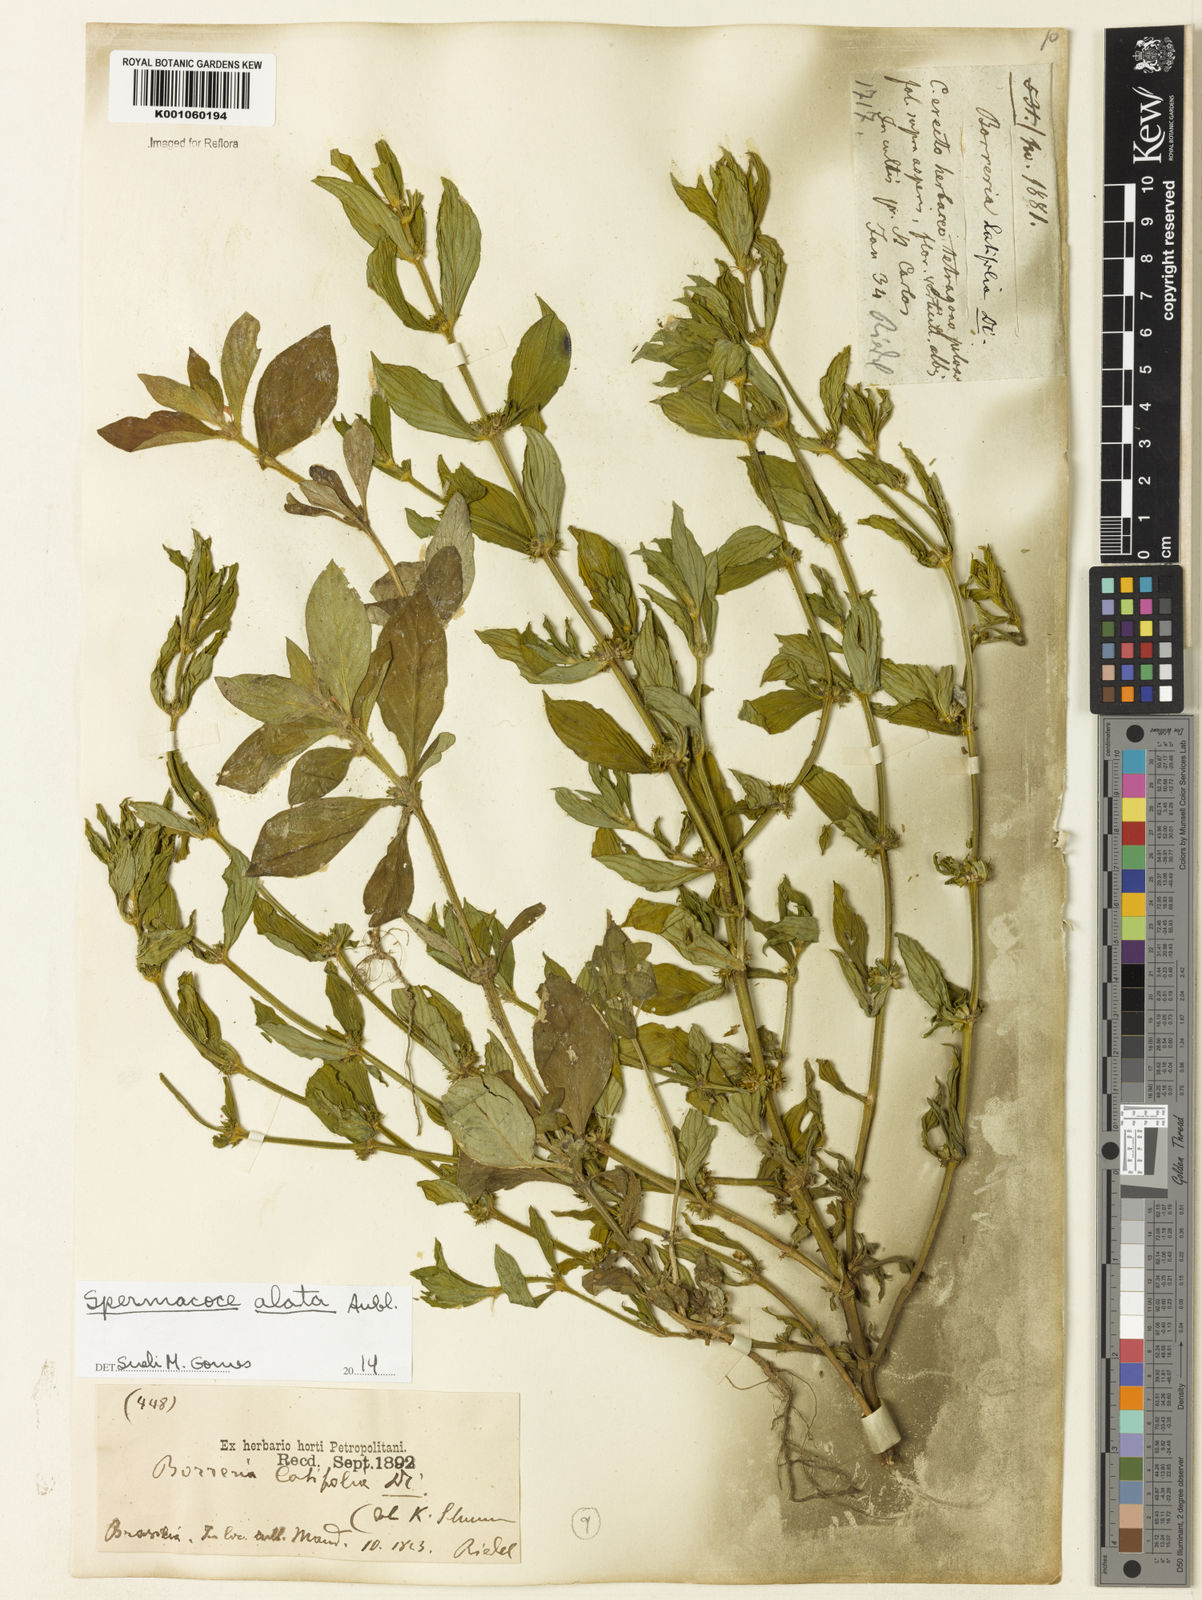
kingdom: Plantae
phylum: Tracheophyta
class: Magnoliopsida
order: Gentianales
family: Rubiaceae
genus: Spermacoce
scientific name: Spermacoce
